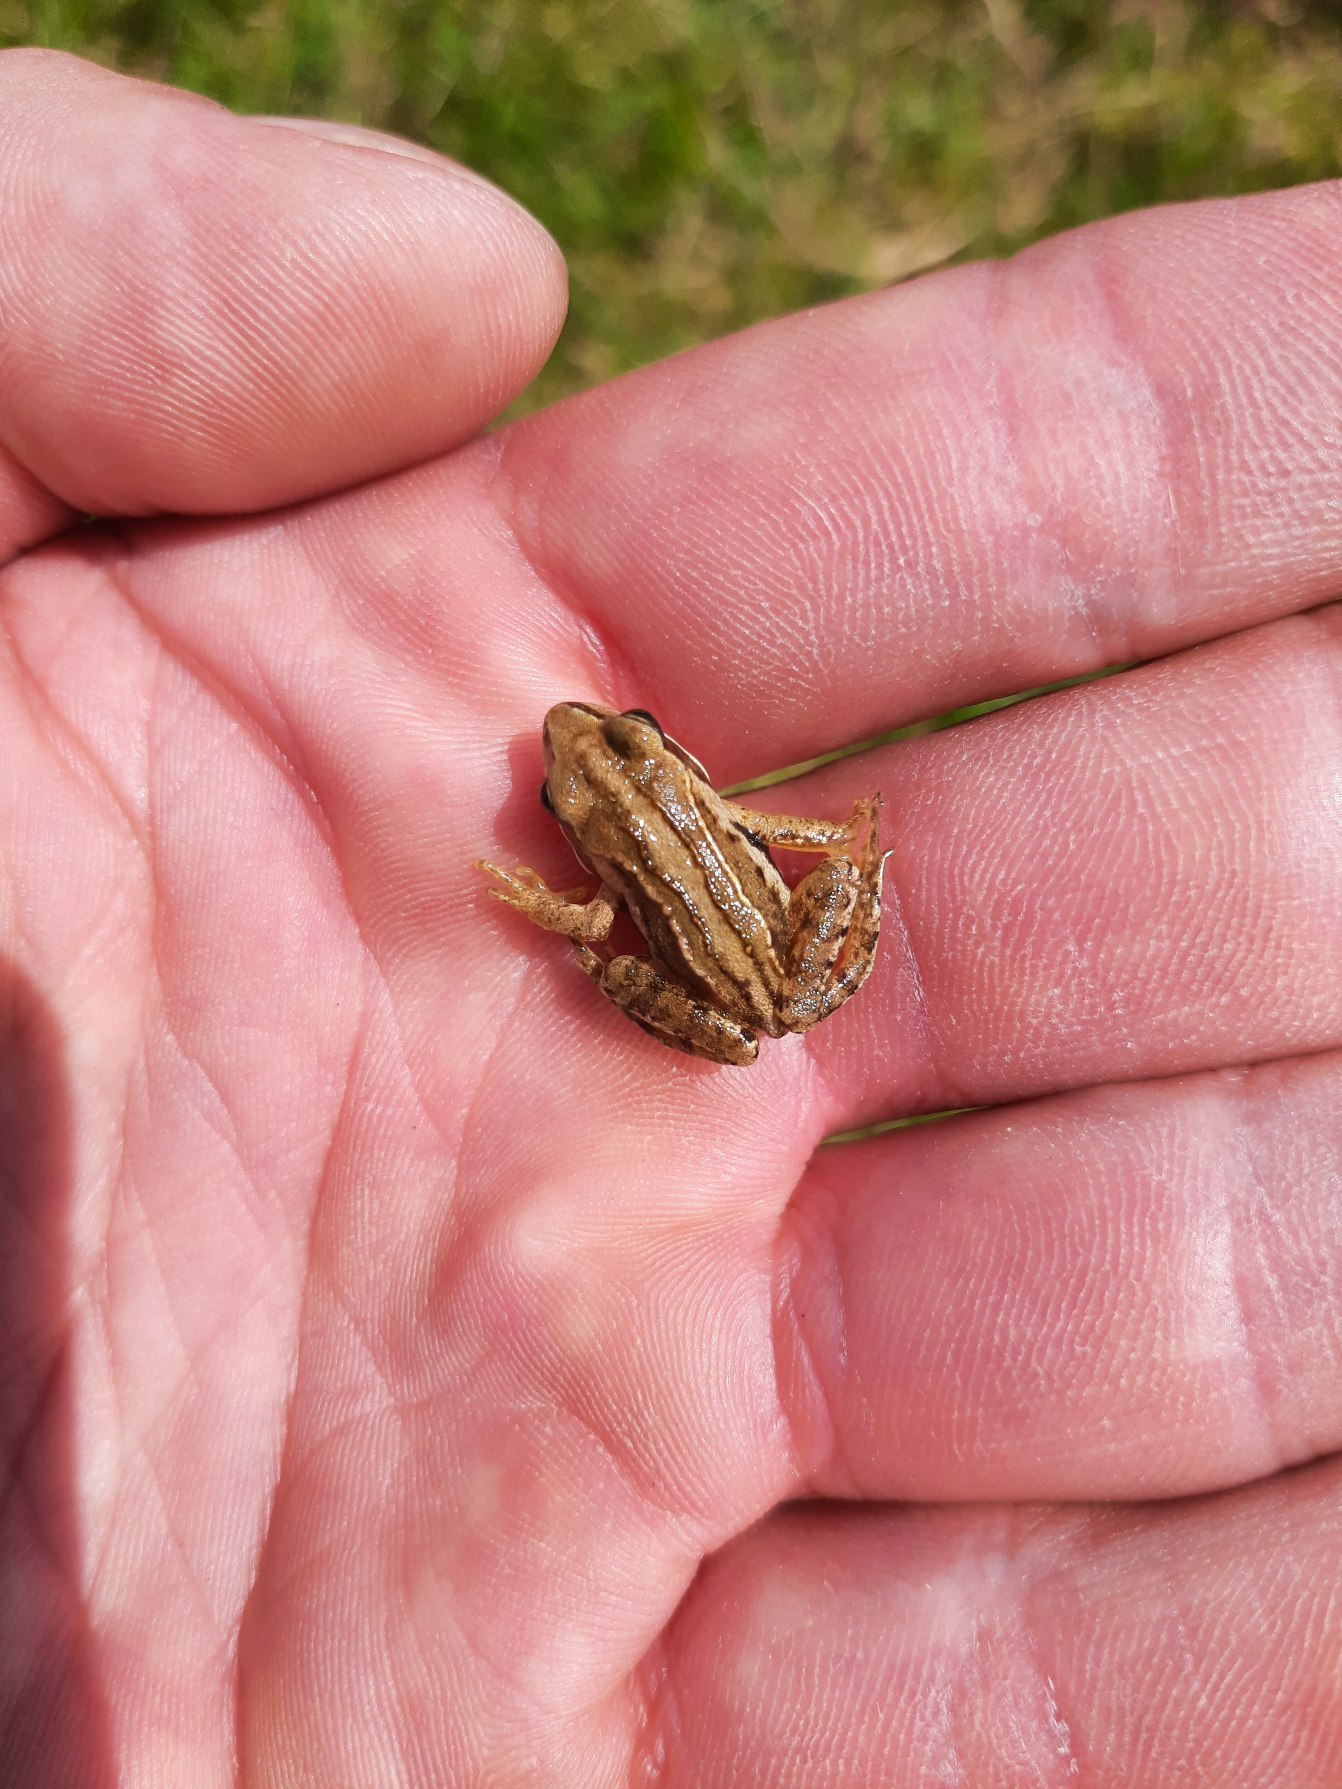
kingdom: Animalia
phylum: Chordata
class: Amphibia
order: Anura
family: Ranidae
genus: Rana
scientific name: Rana arvalis
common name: Spidssnudet frø
